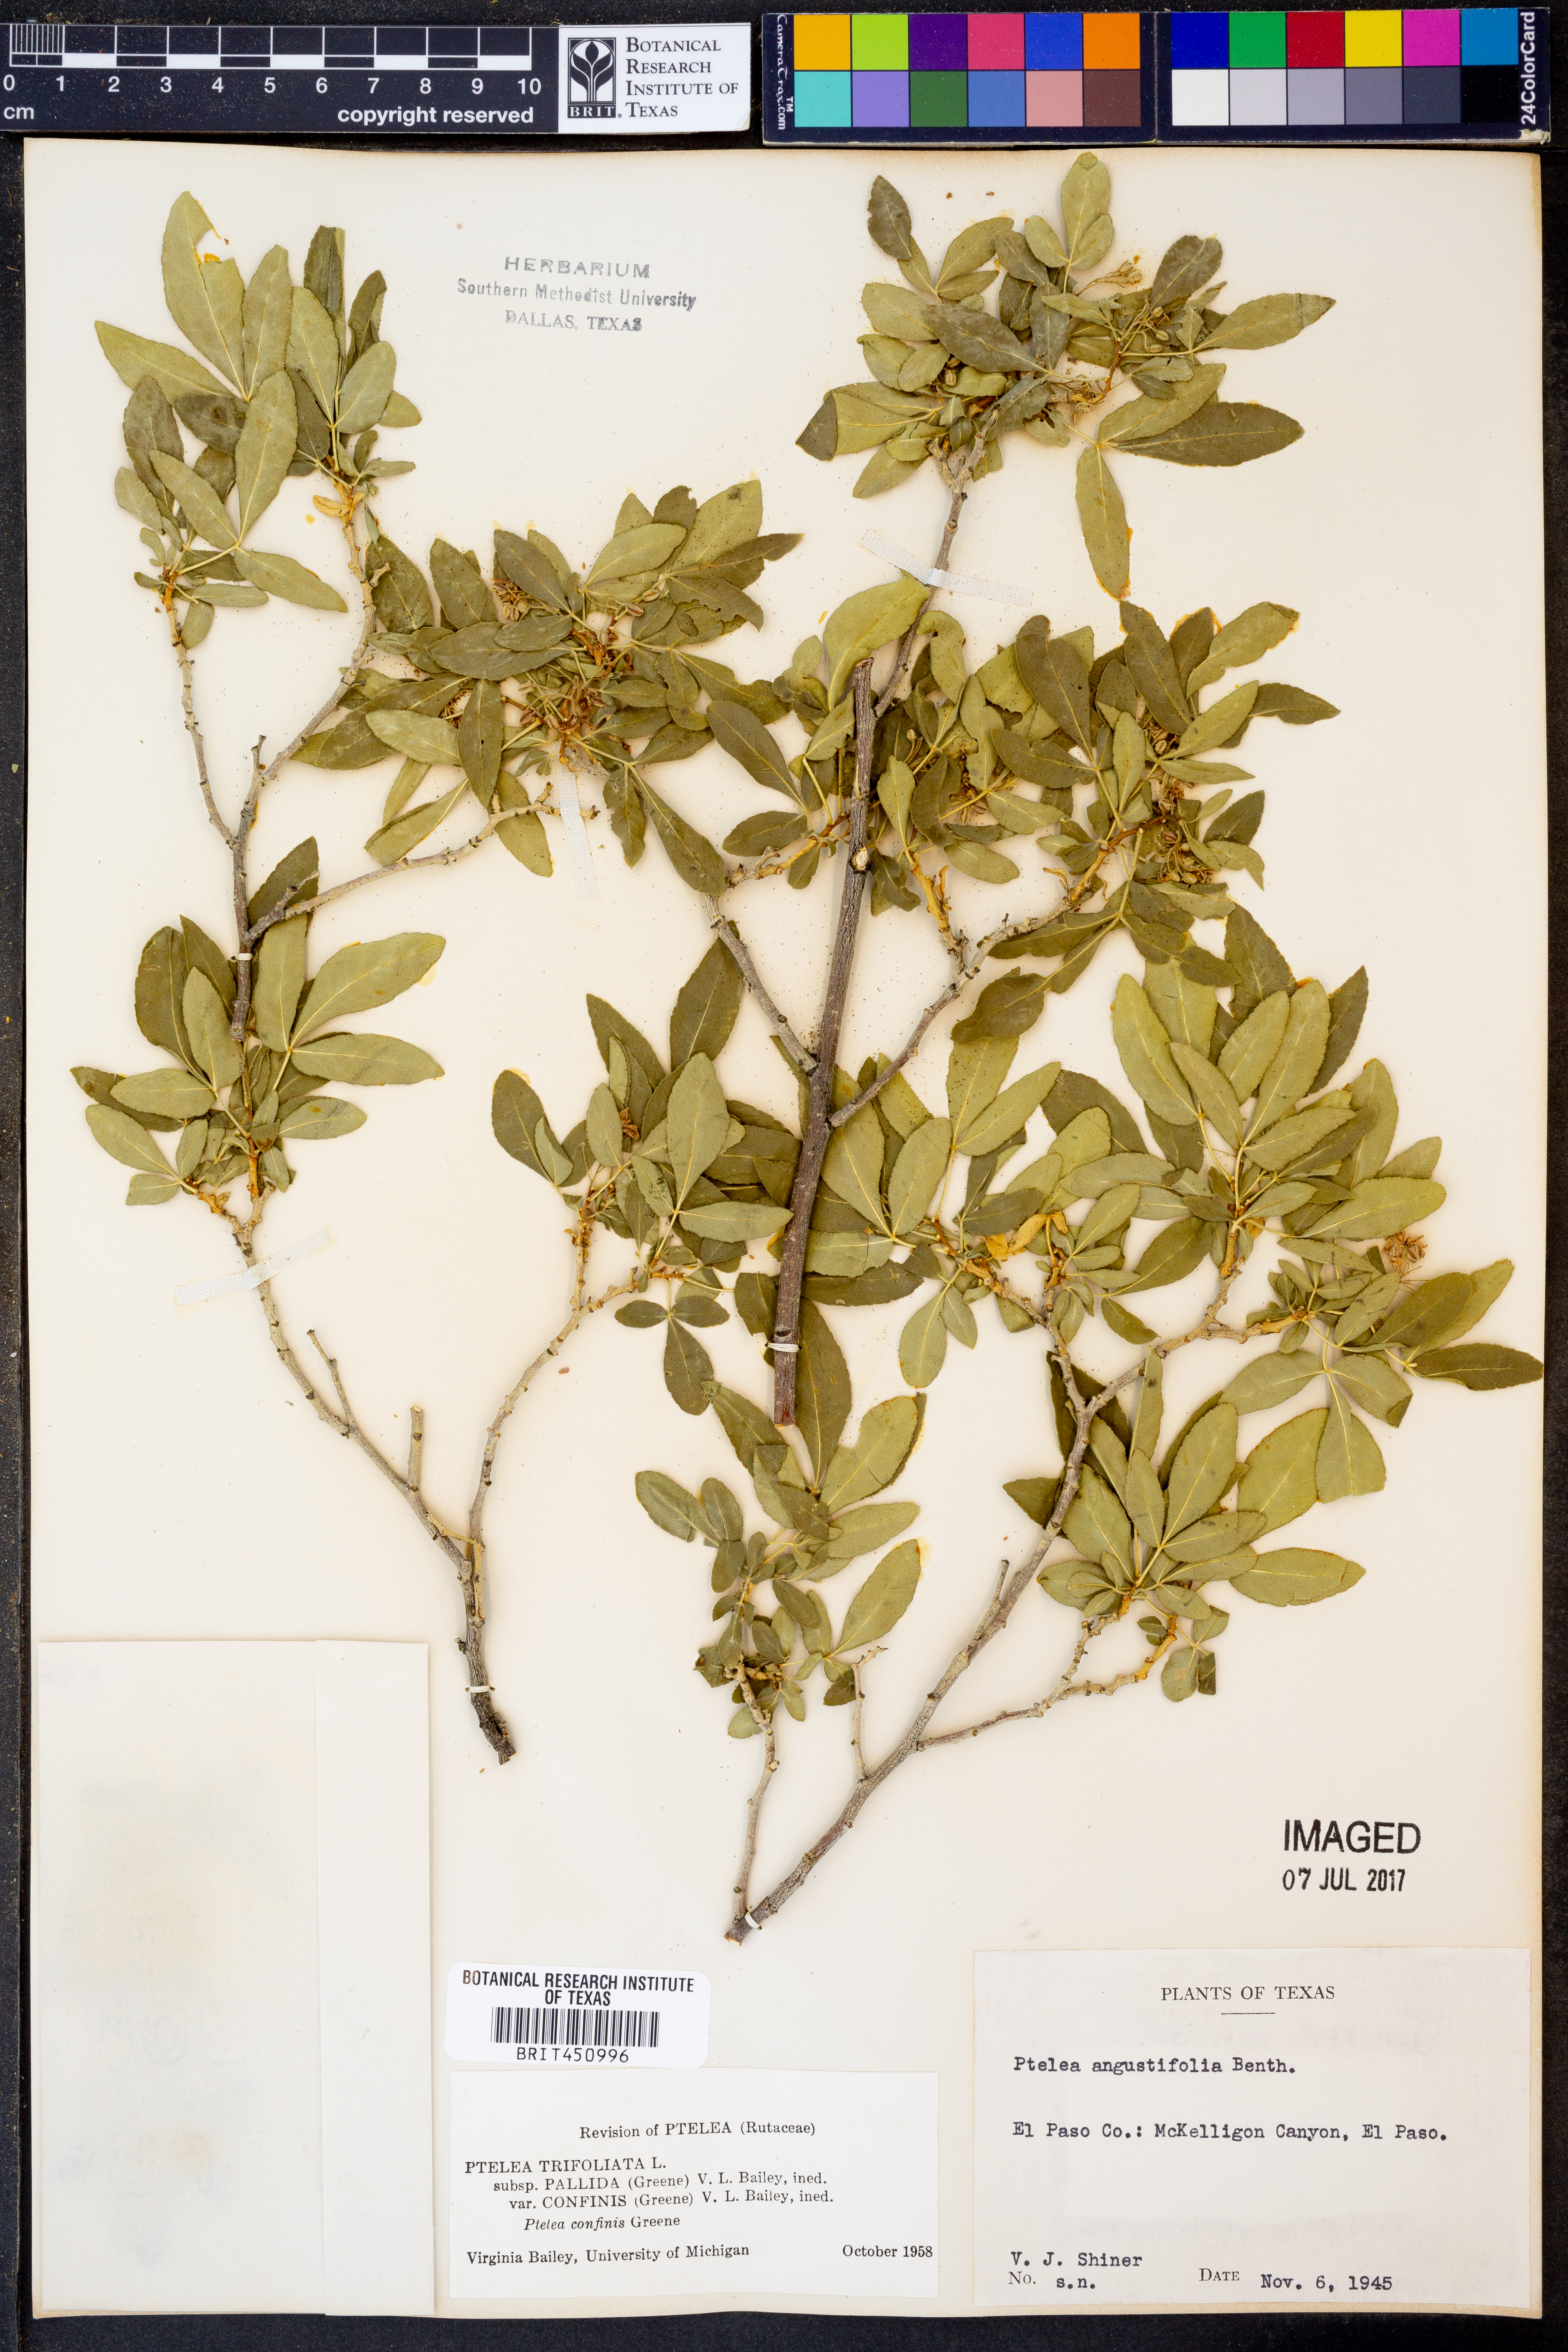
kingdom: Plantae
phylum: Tracheophyta
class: Magnoliopsida
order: Sapindales
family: Rutaceae
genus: Ptelea
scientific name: Ptelea trifoliata
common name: Common hop-tree
